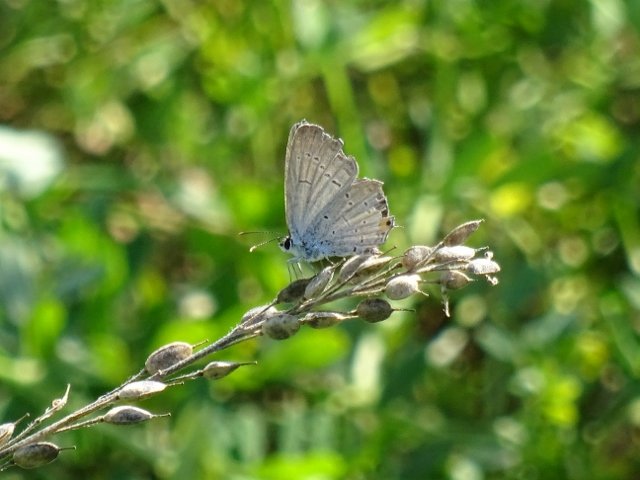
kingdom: Animalia
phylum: Arthropoda
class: Insecta
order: Lepidoptera
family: Lycaenidae
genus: Elkalyce
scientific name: Elkalyce comyntas
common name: Eastern Tailed-Blue
